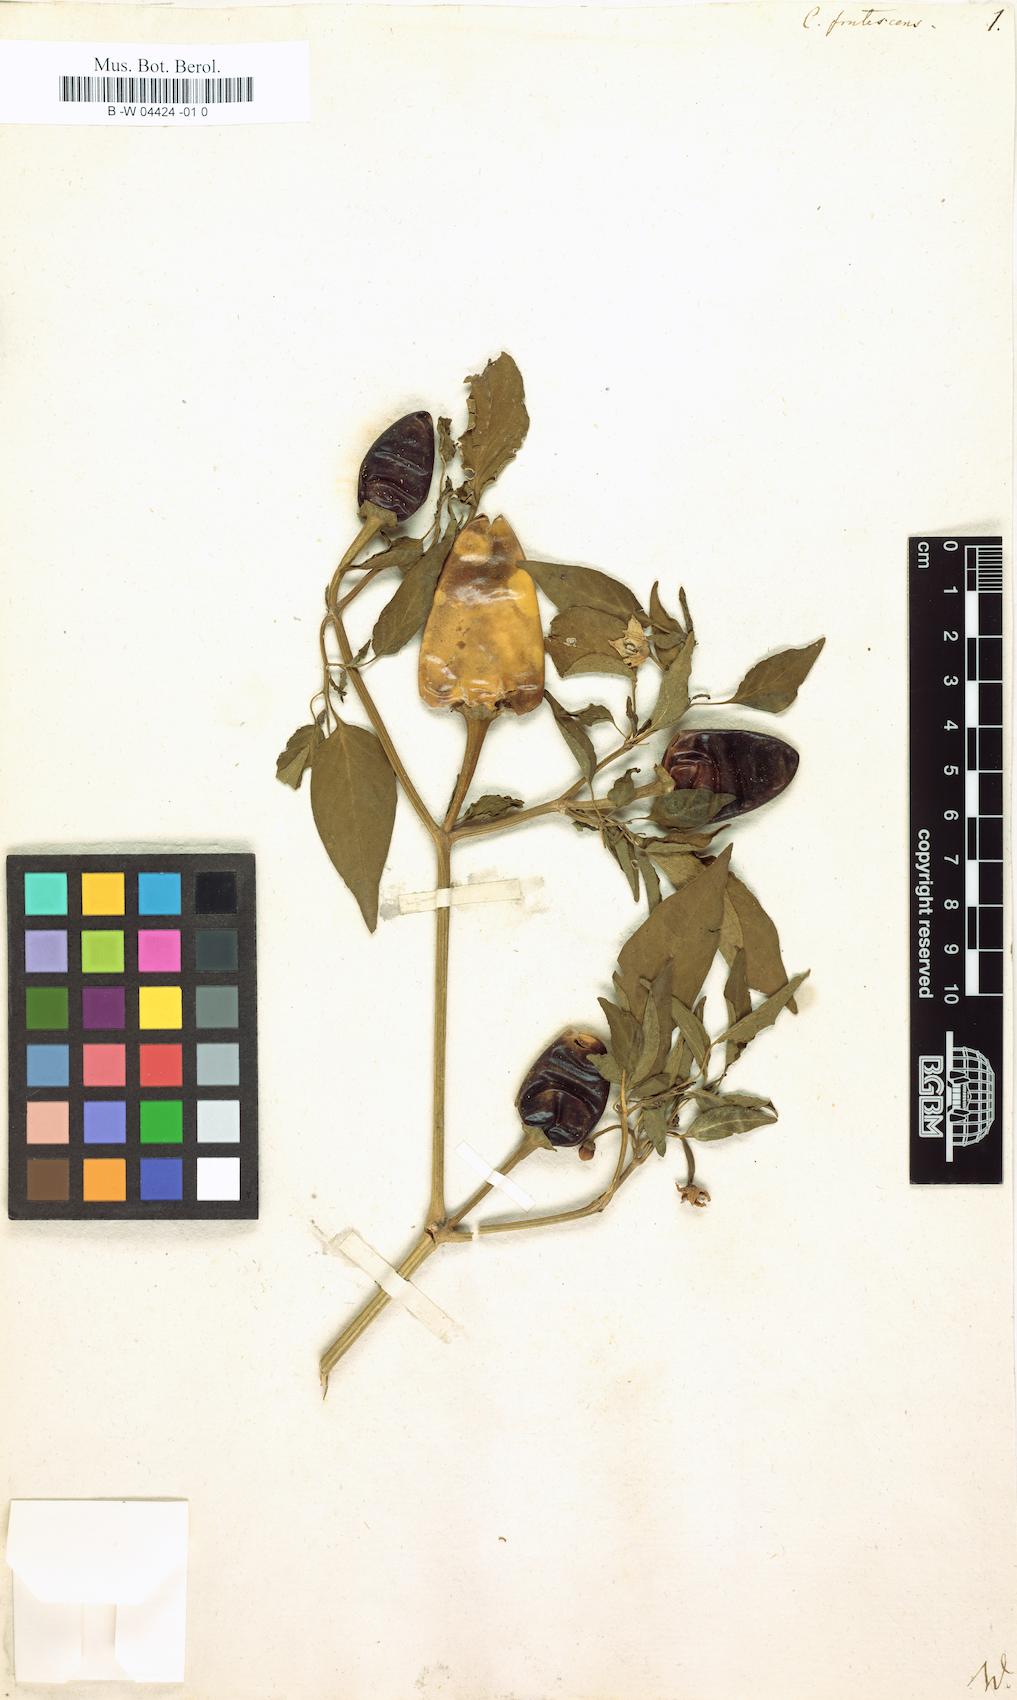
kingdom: Plantae
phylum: Tracheophyta
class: Magnoliopsida
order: Solanales
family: Solanaceae
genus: Capsicum
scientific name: Capsicum frutescens
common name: Bird pepper
